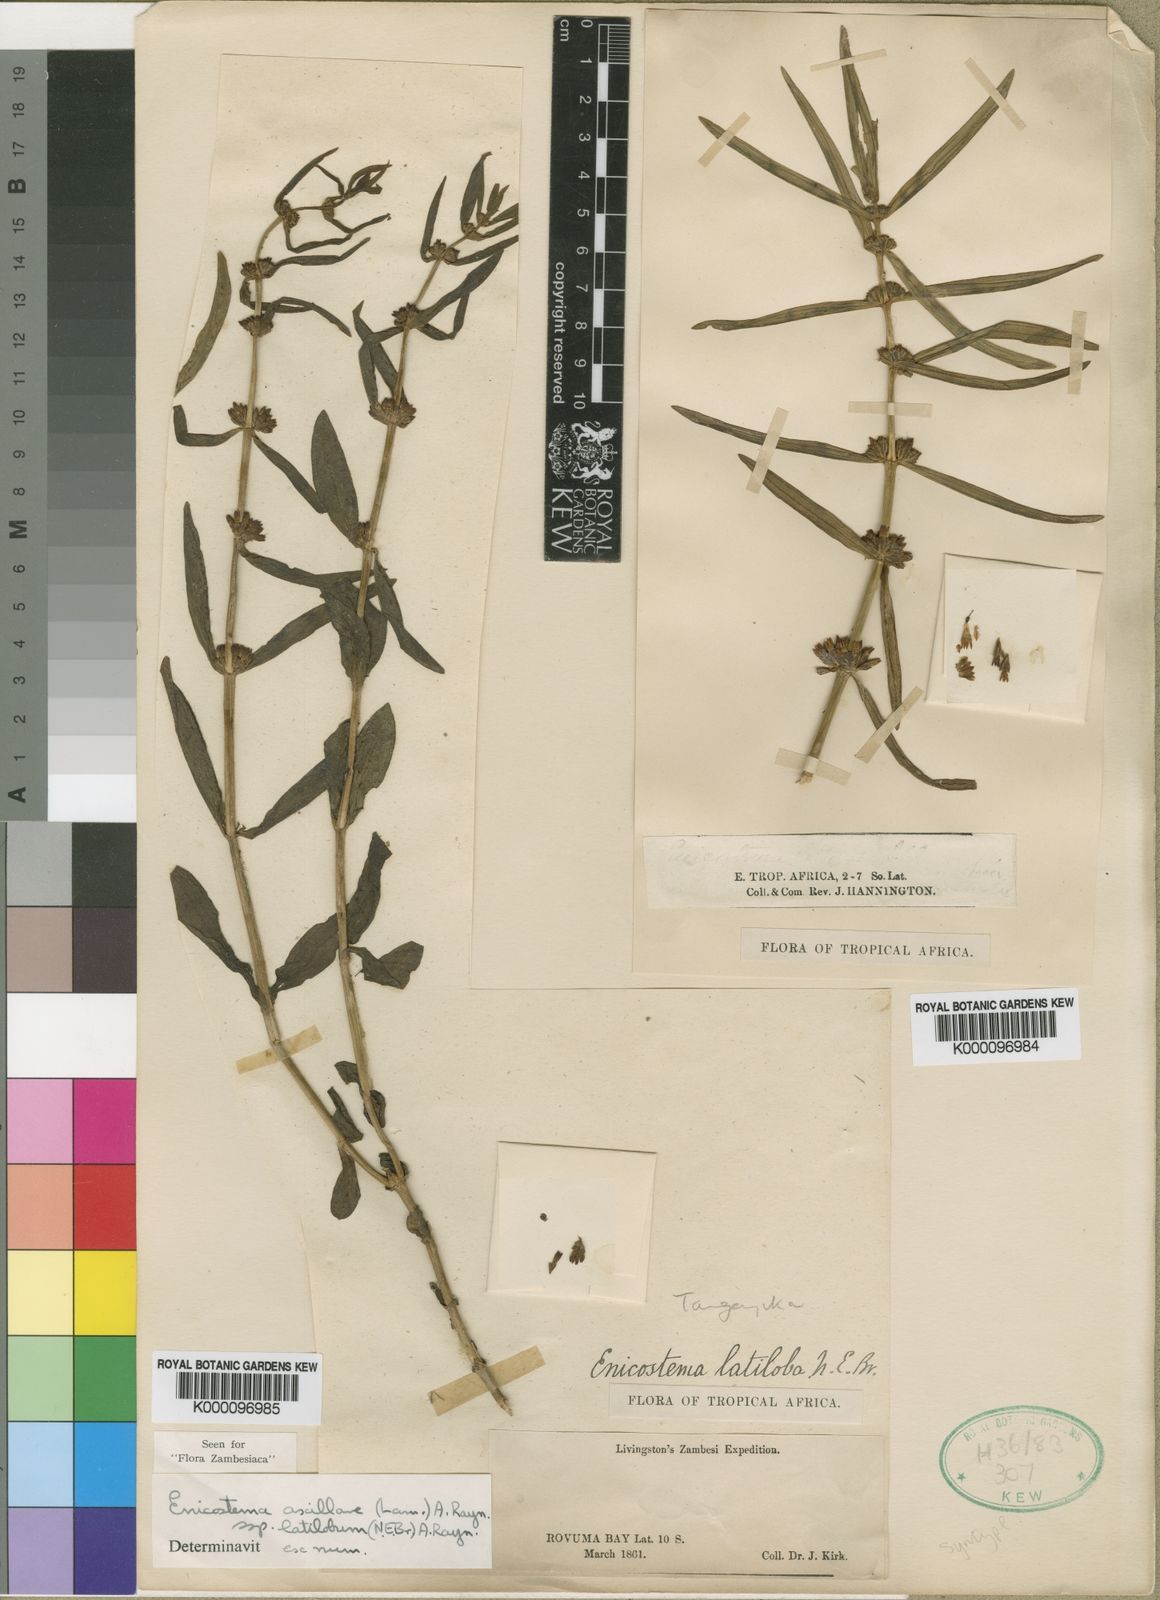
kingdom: Plantae
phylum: Tracheophyta
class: Magnoliopsida
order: Gentianales
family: Gentianaceae
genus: Enicostema
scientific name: Enicostema axillare
